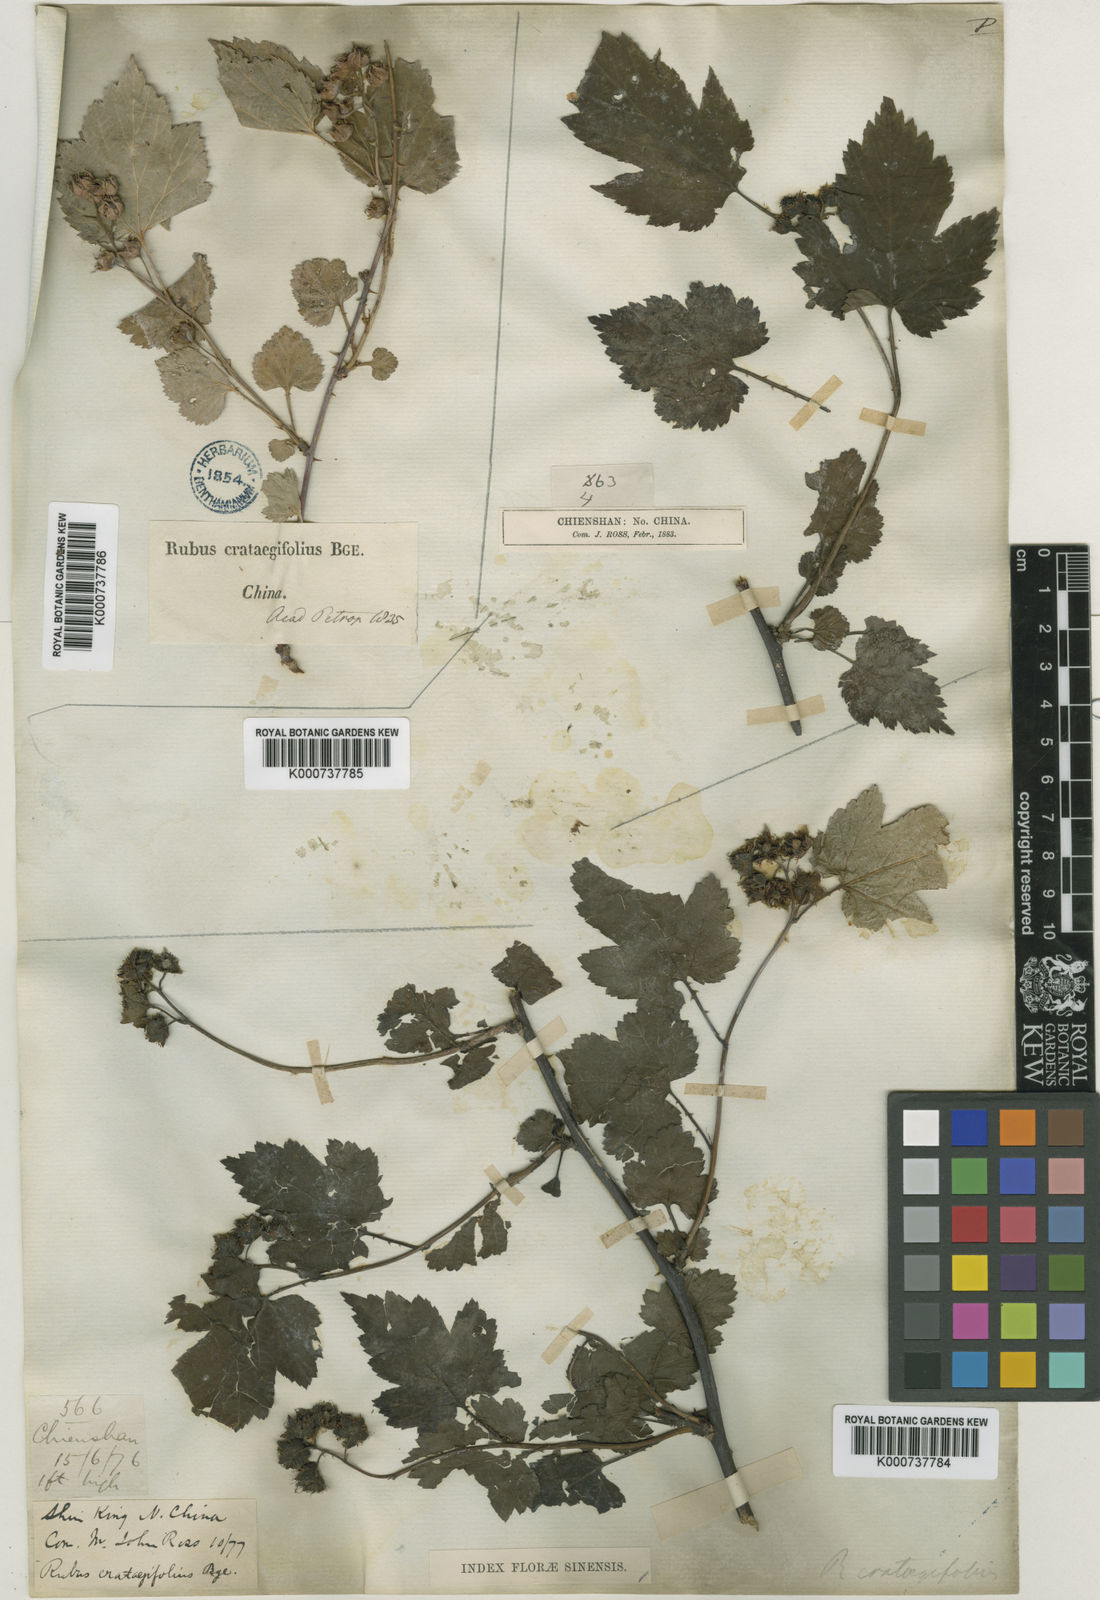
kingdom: Plantae
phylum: Tracheophyta
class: Magnoliopsida
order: Rosales
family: Rosaceae
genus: Rubus
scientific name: Rubus crataegifolius
